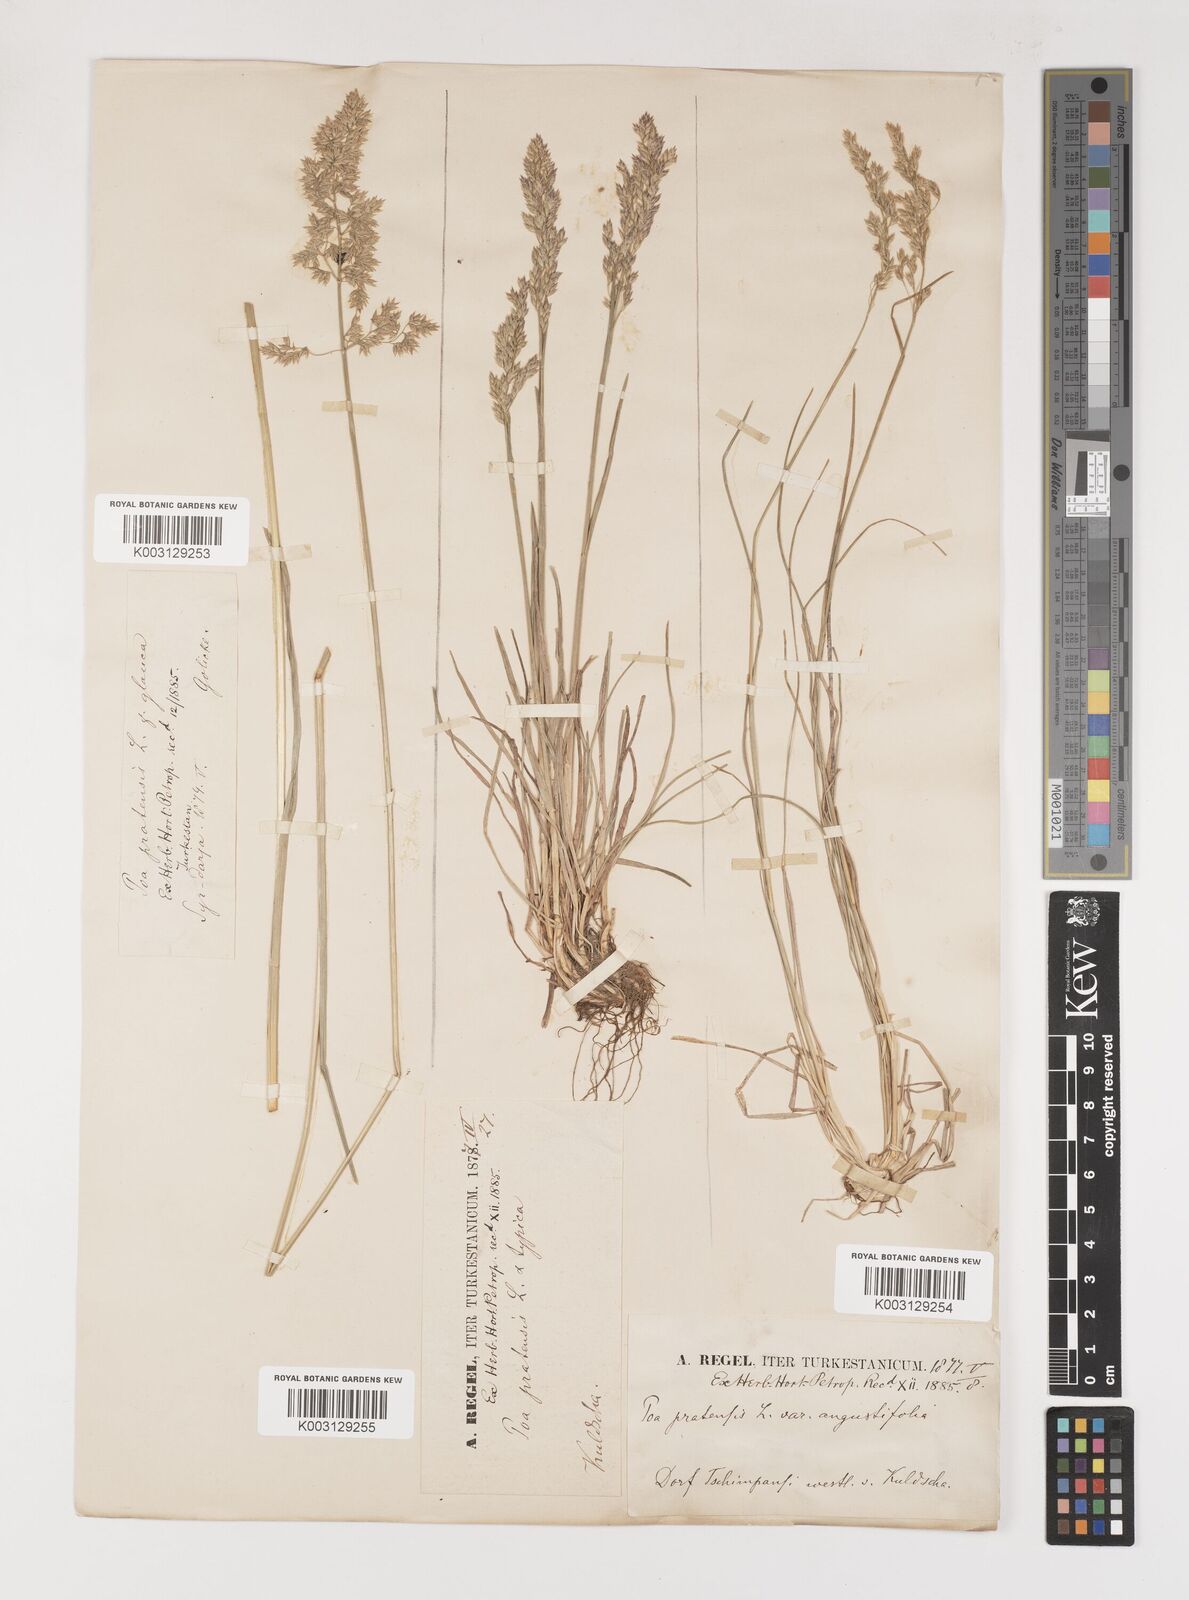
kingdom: Plantae
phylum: Tracheophyta
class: Liliopsida
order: Poales
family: Poaceae
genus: Poa
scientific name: Poa angustifolia
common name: Narrow-leaved meadow-grass
